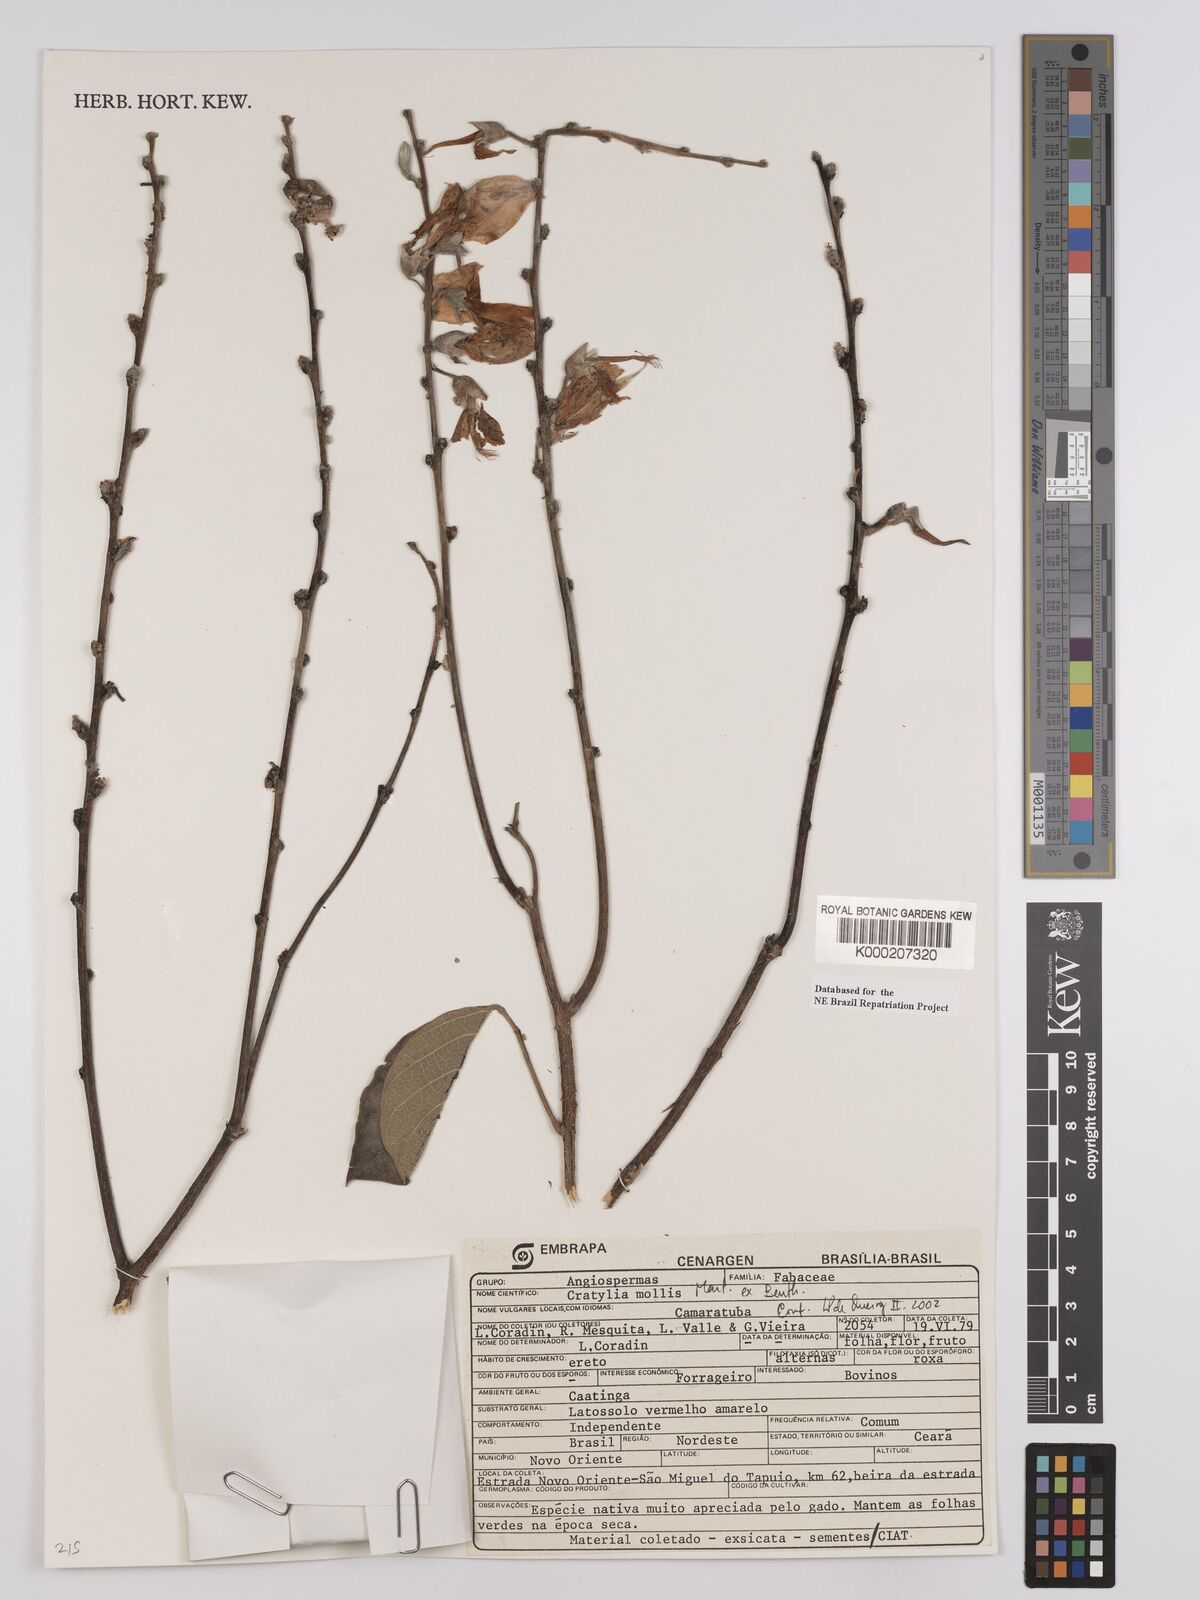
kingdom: Plantae
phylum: Tracheophyta
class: Magnoliopsida
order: Fabales
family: Fabaceae
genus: Cratylia
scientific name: Cratylia mollis
